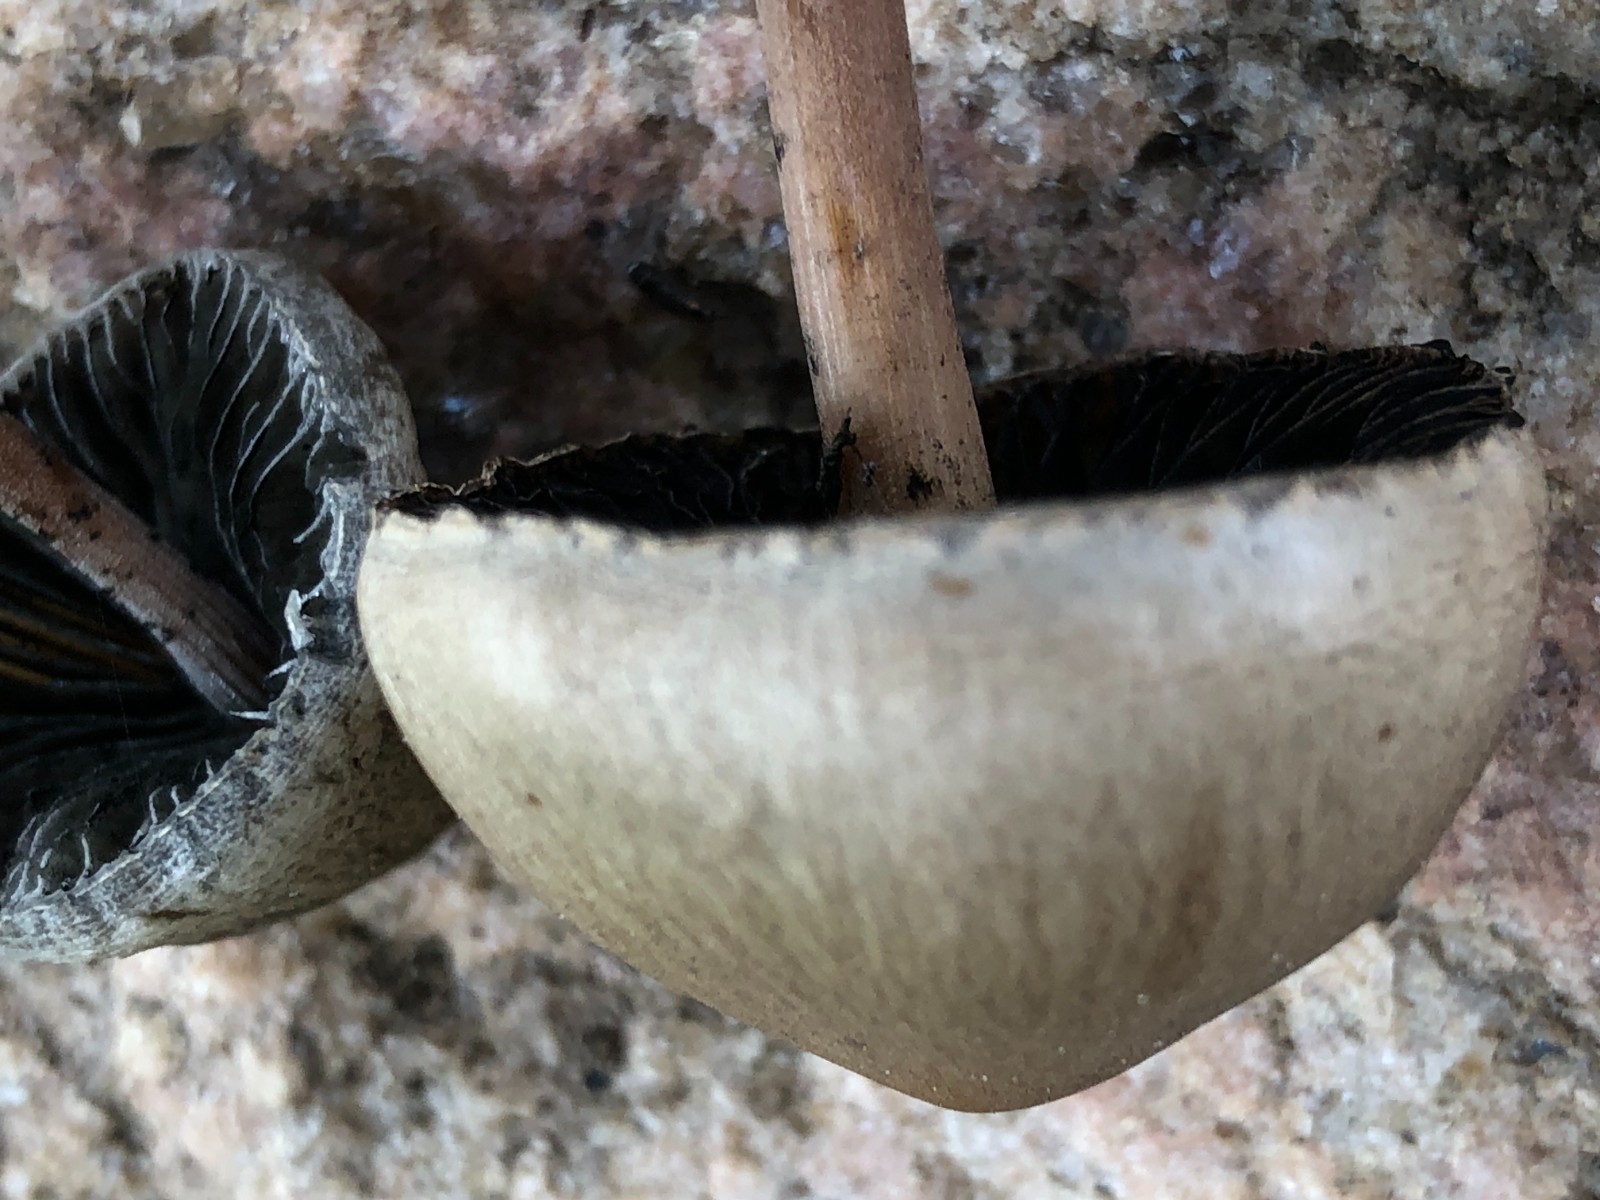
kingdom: Fungi
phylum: Basidiomycota
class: Agaricomycetes
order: Agaricales
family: Bolbitiaceae
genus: Panaeolus
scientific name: Panaeolus papilionaceus
